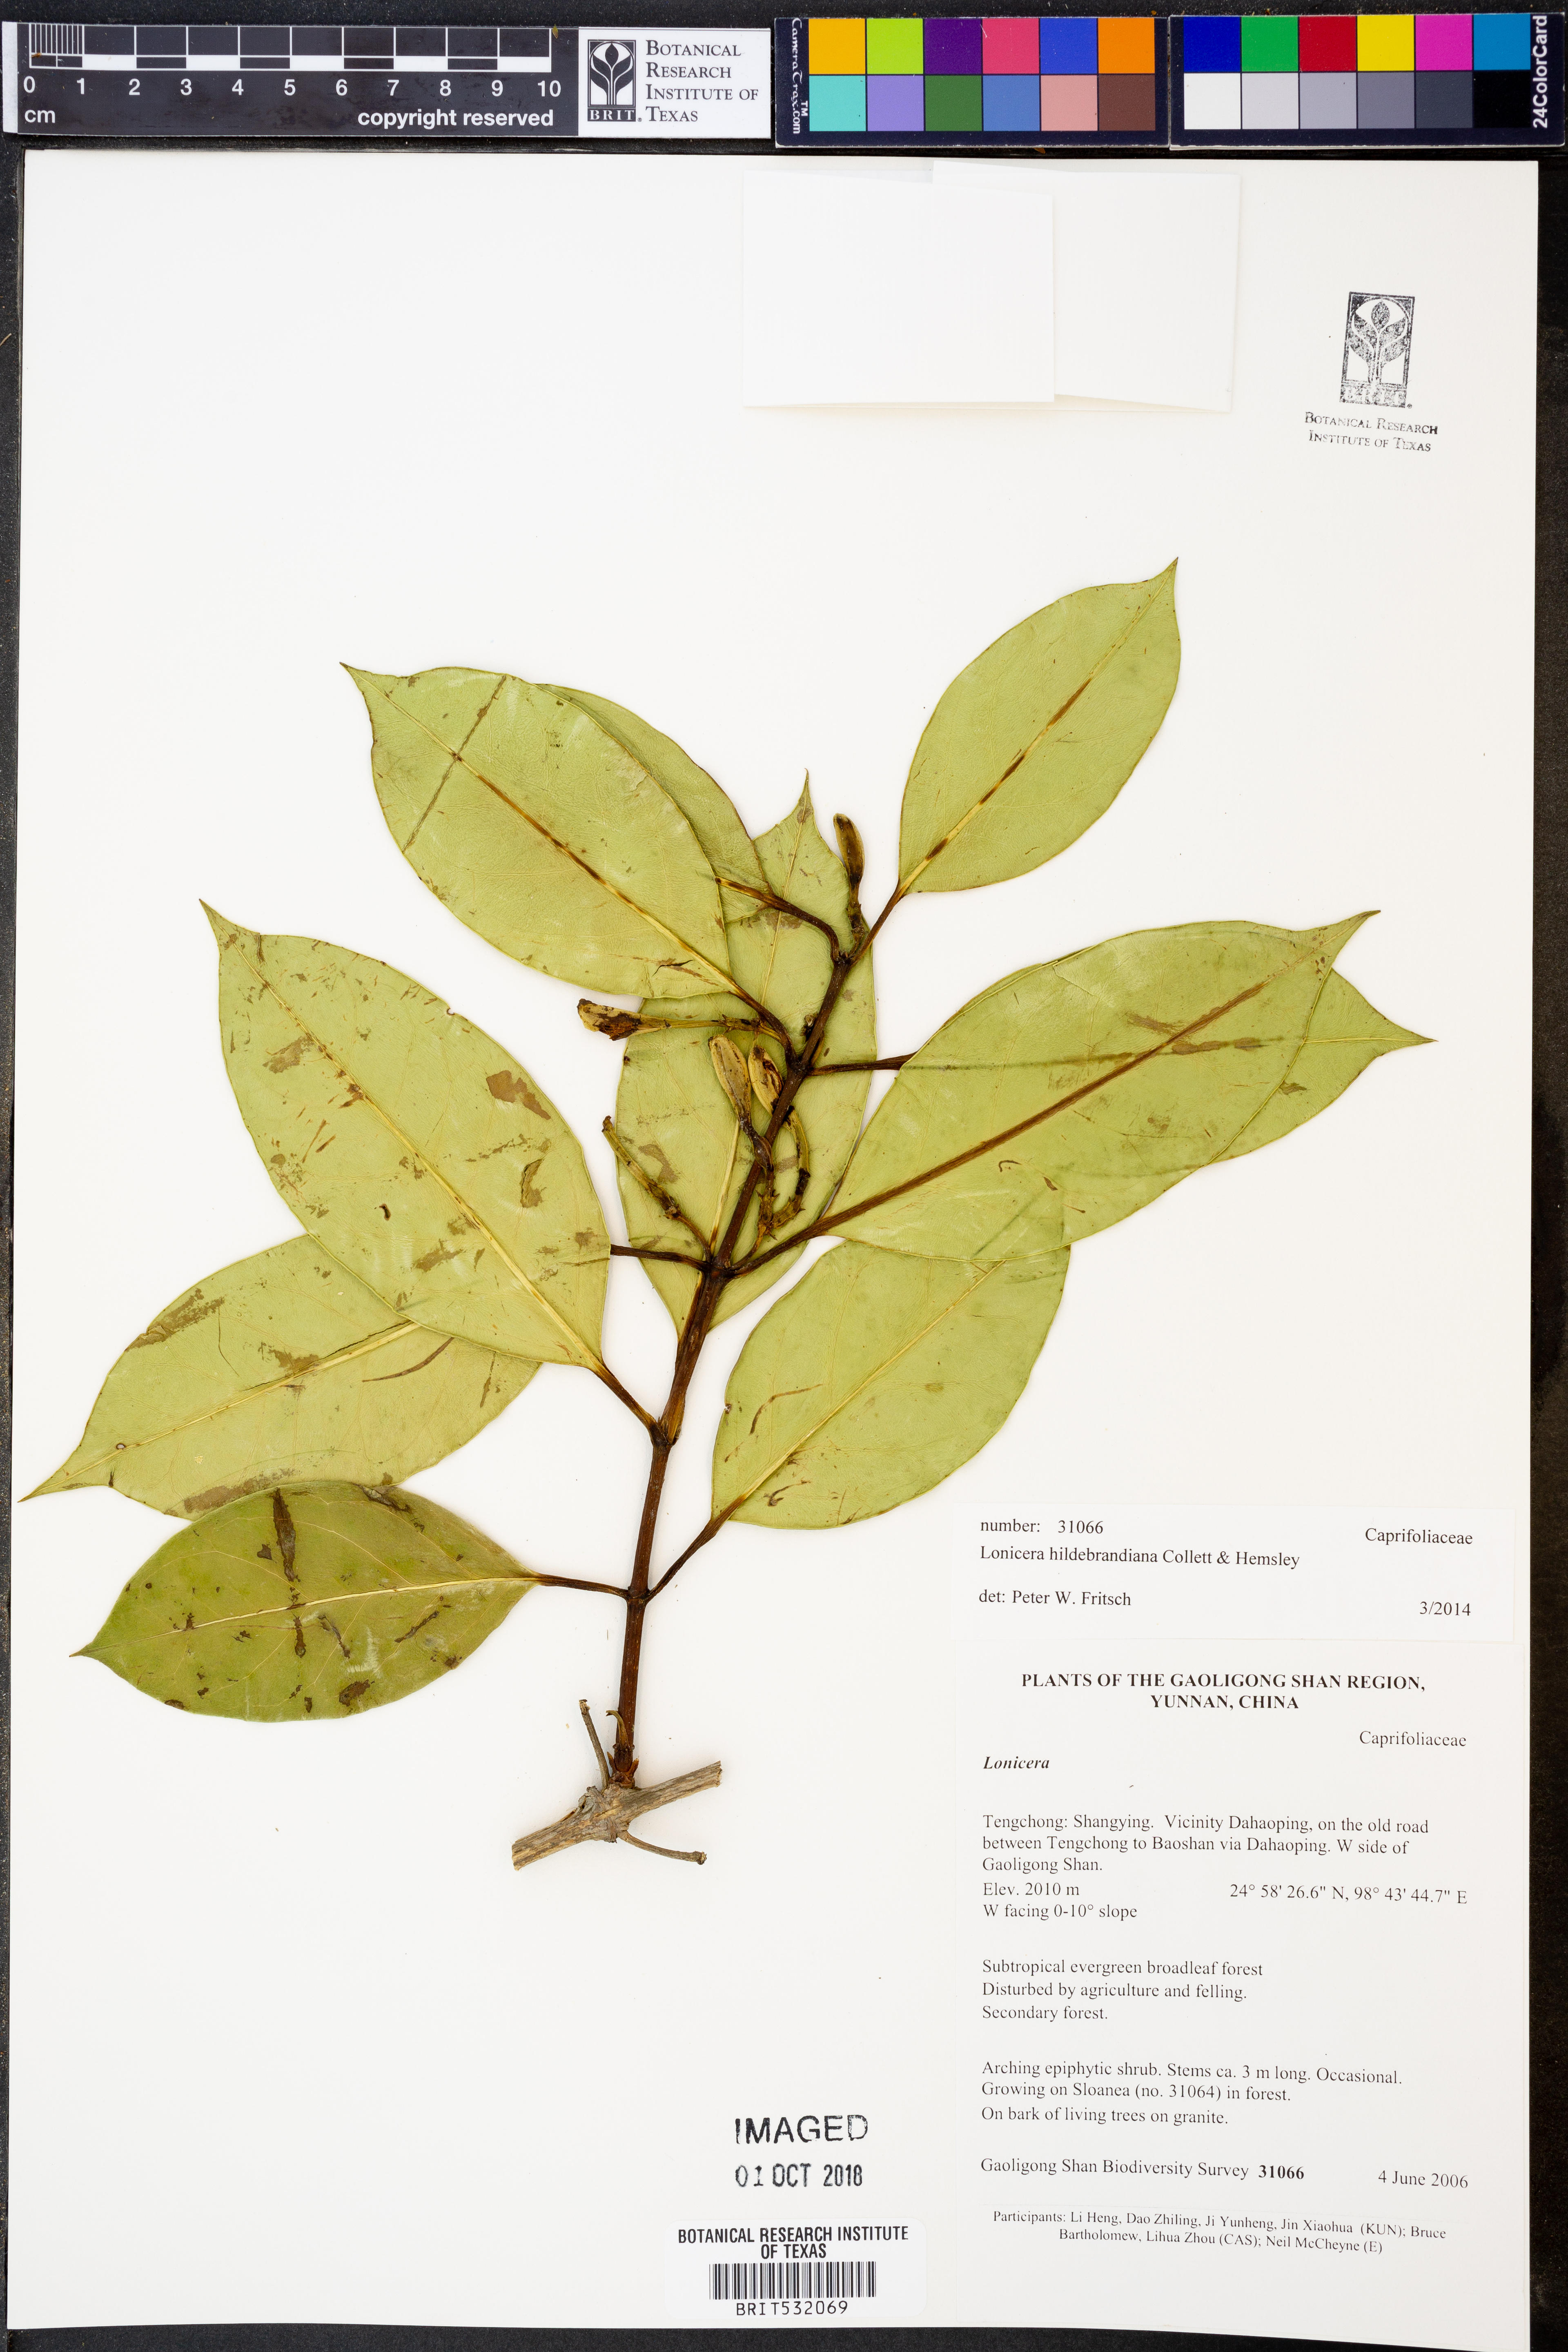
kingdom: Plantae
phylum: Tracheophyta
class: Magnoliopsida
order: Dipsacales
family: Caprifoliaceae
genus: Lonicera
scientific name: Lonicera hildebrandiana
